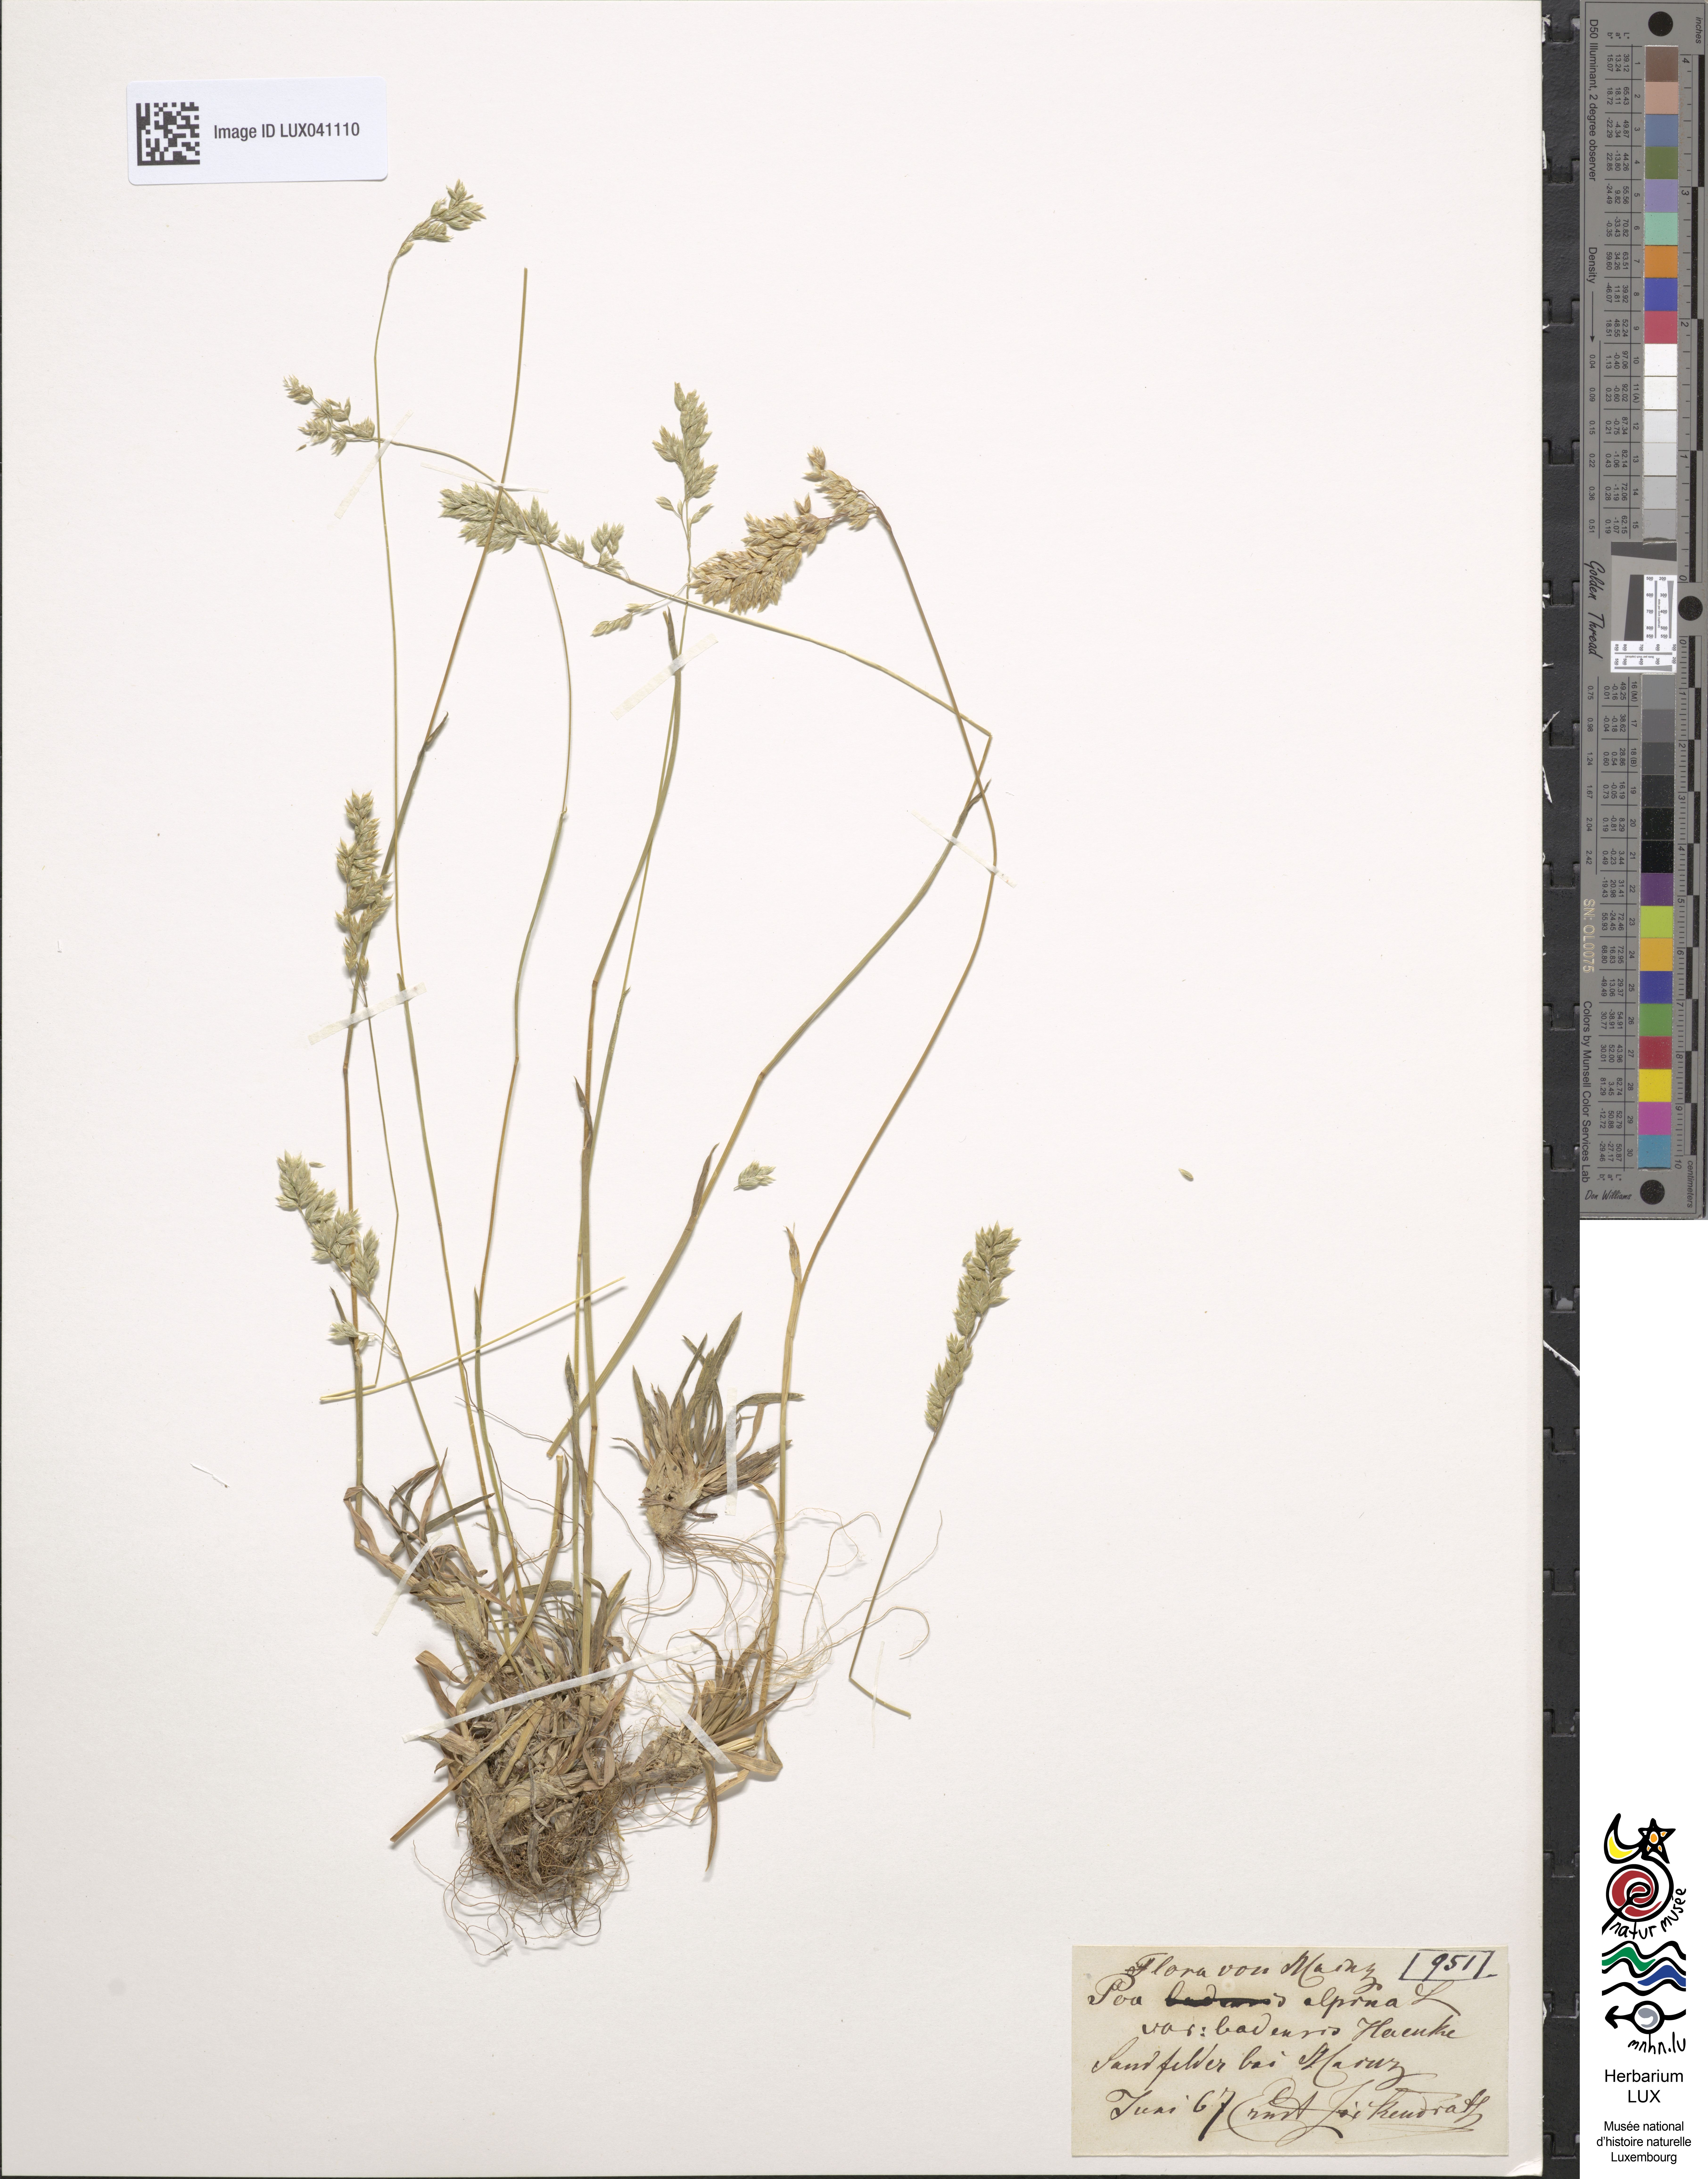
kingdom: Plantae
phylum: Tracheophyta
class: Liliopsida
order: Poales
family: Poaceae
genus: Poa
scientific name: Poa badensis
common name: Baden's bluegrass
